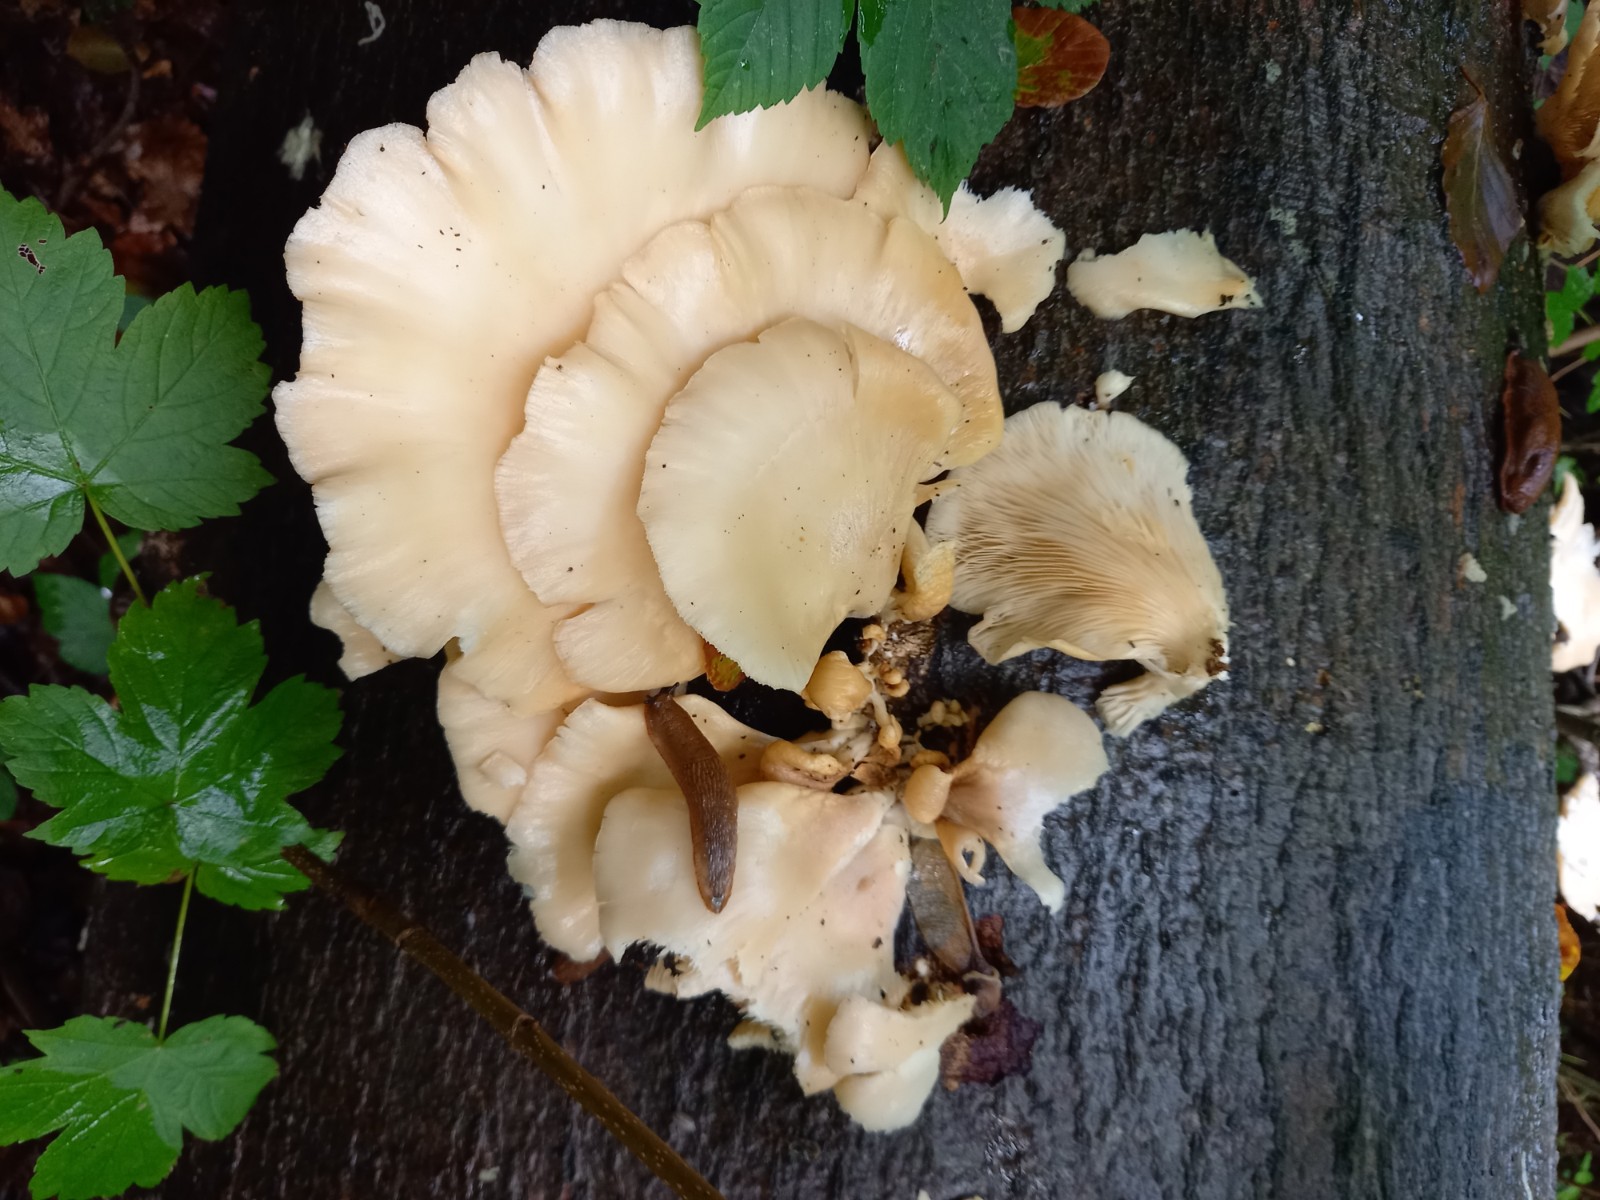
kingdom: Fungi
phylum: Basidiomycota
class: Agaricomycetes
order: Agaricales
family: Pleurotaceae
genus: Pleurotus
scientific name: Pleurotus pulmonarius
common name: sommer-østershat
